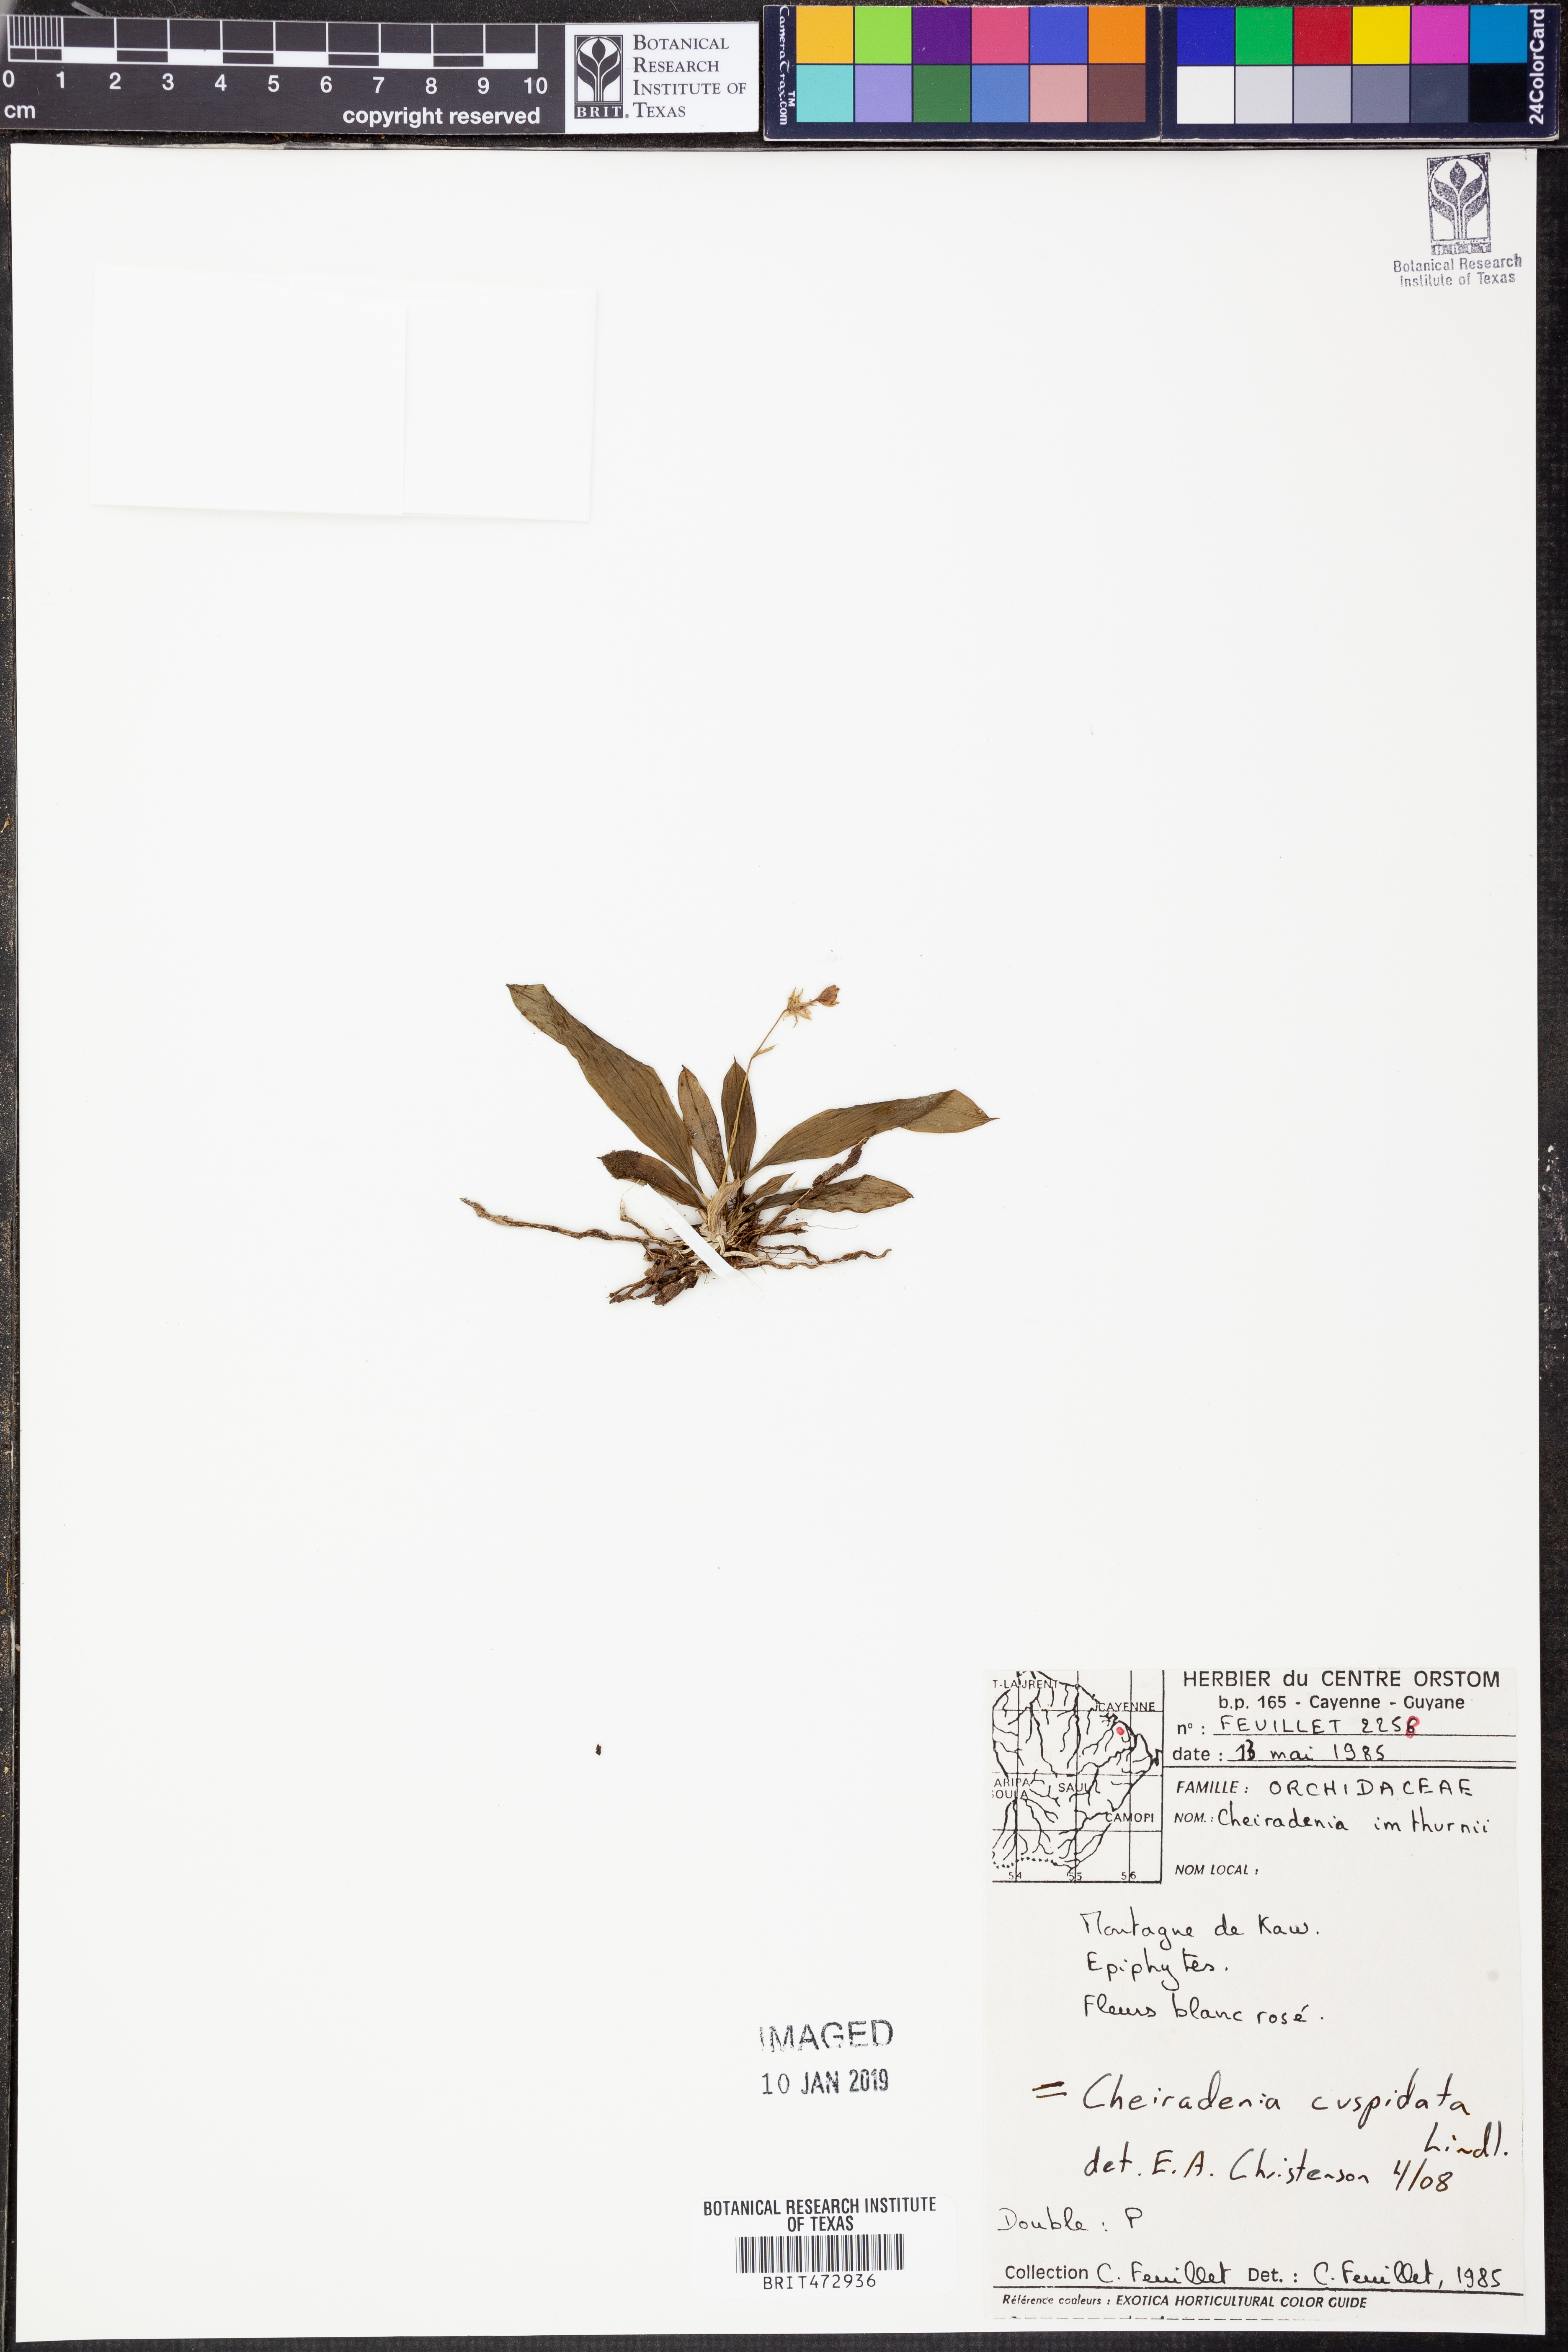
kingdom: Plantae
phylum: Tracheophyta
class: Liliopsida
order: Asparagales
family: Orchidaceae
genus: Cheiradenia
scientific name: Cheiradenia cuspidata
